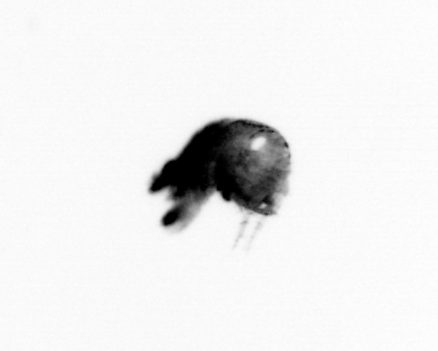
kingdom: Animalia
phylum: Arthropoda
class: Copepoda
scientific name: Copepoda
